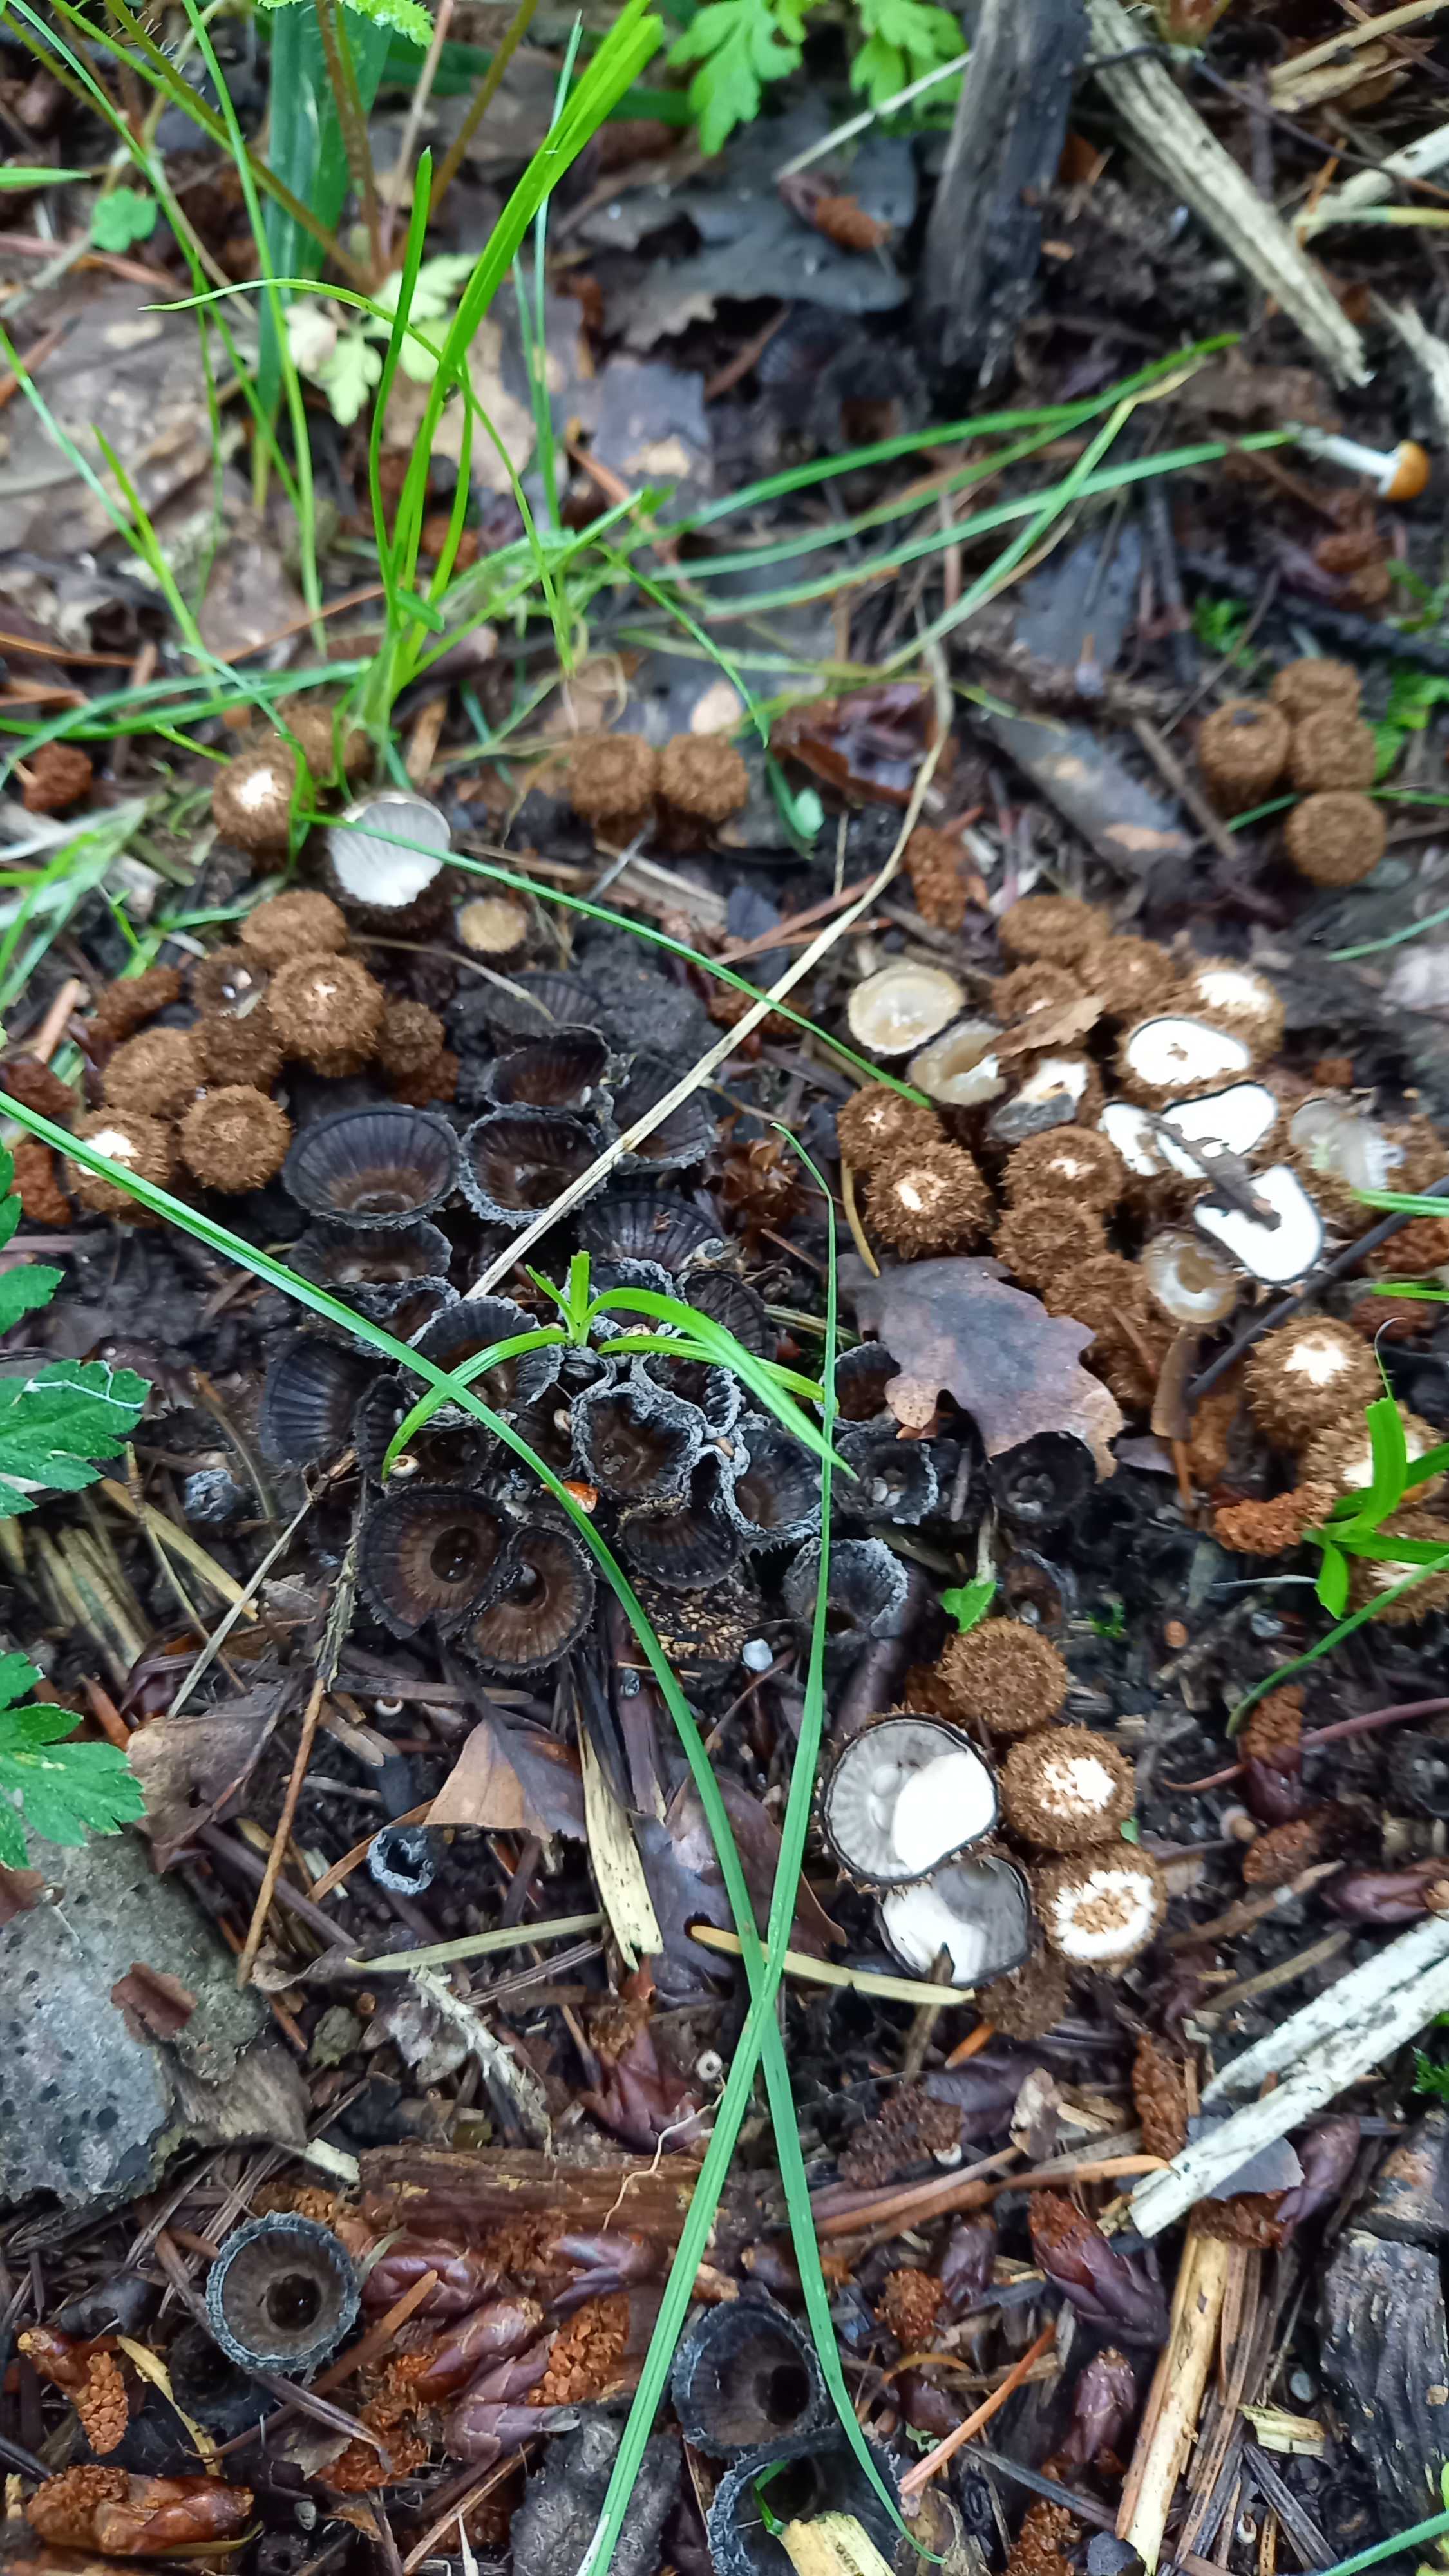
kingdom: Fungi
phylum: Basidiomycota
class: Agaricomycetes
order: Agaricales
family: Agaricaceae
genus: Cyathus
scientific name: Cyathus striatus
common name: stribet redesvamp
